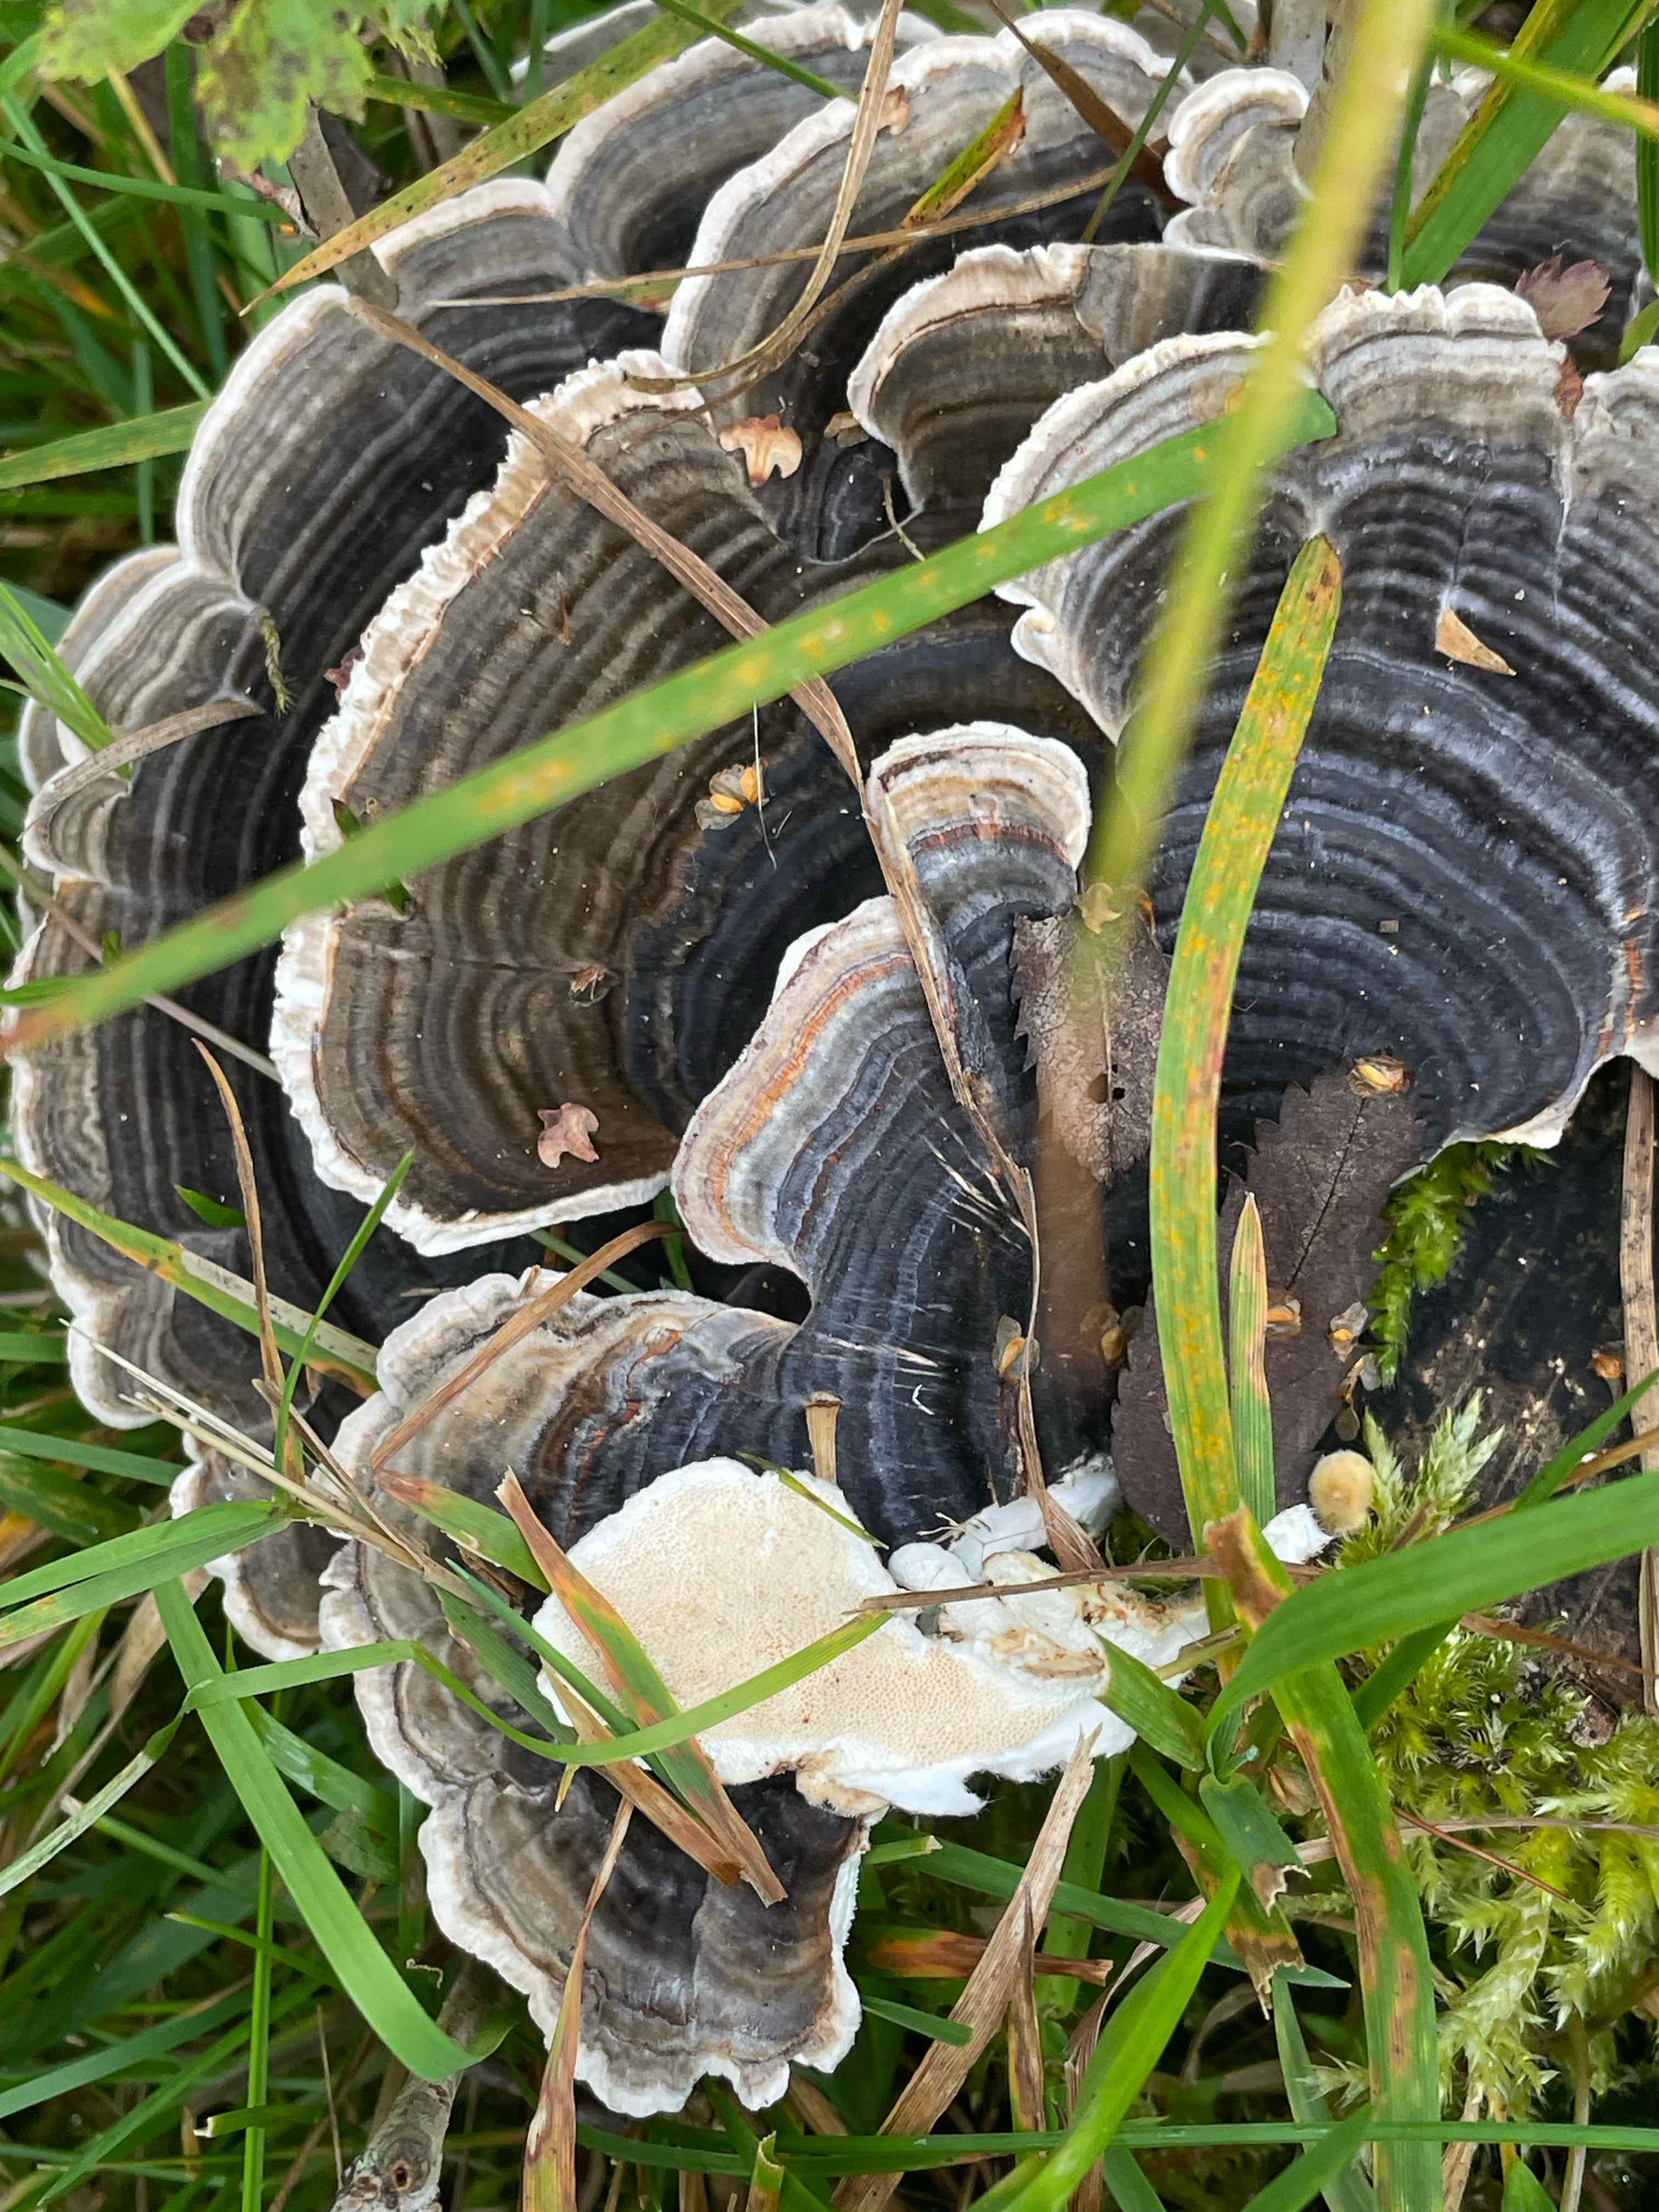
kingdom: Fungi
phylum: Basidiomycota
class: Agaricomycetes
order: Polyporales
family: Polyporaceae
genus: Trametes
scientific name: Trametes versicolor
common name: broget læderporesvamp
